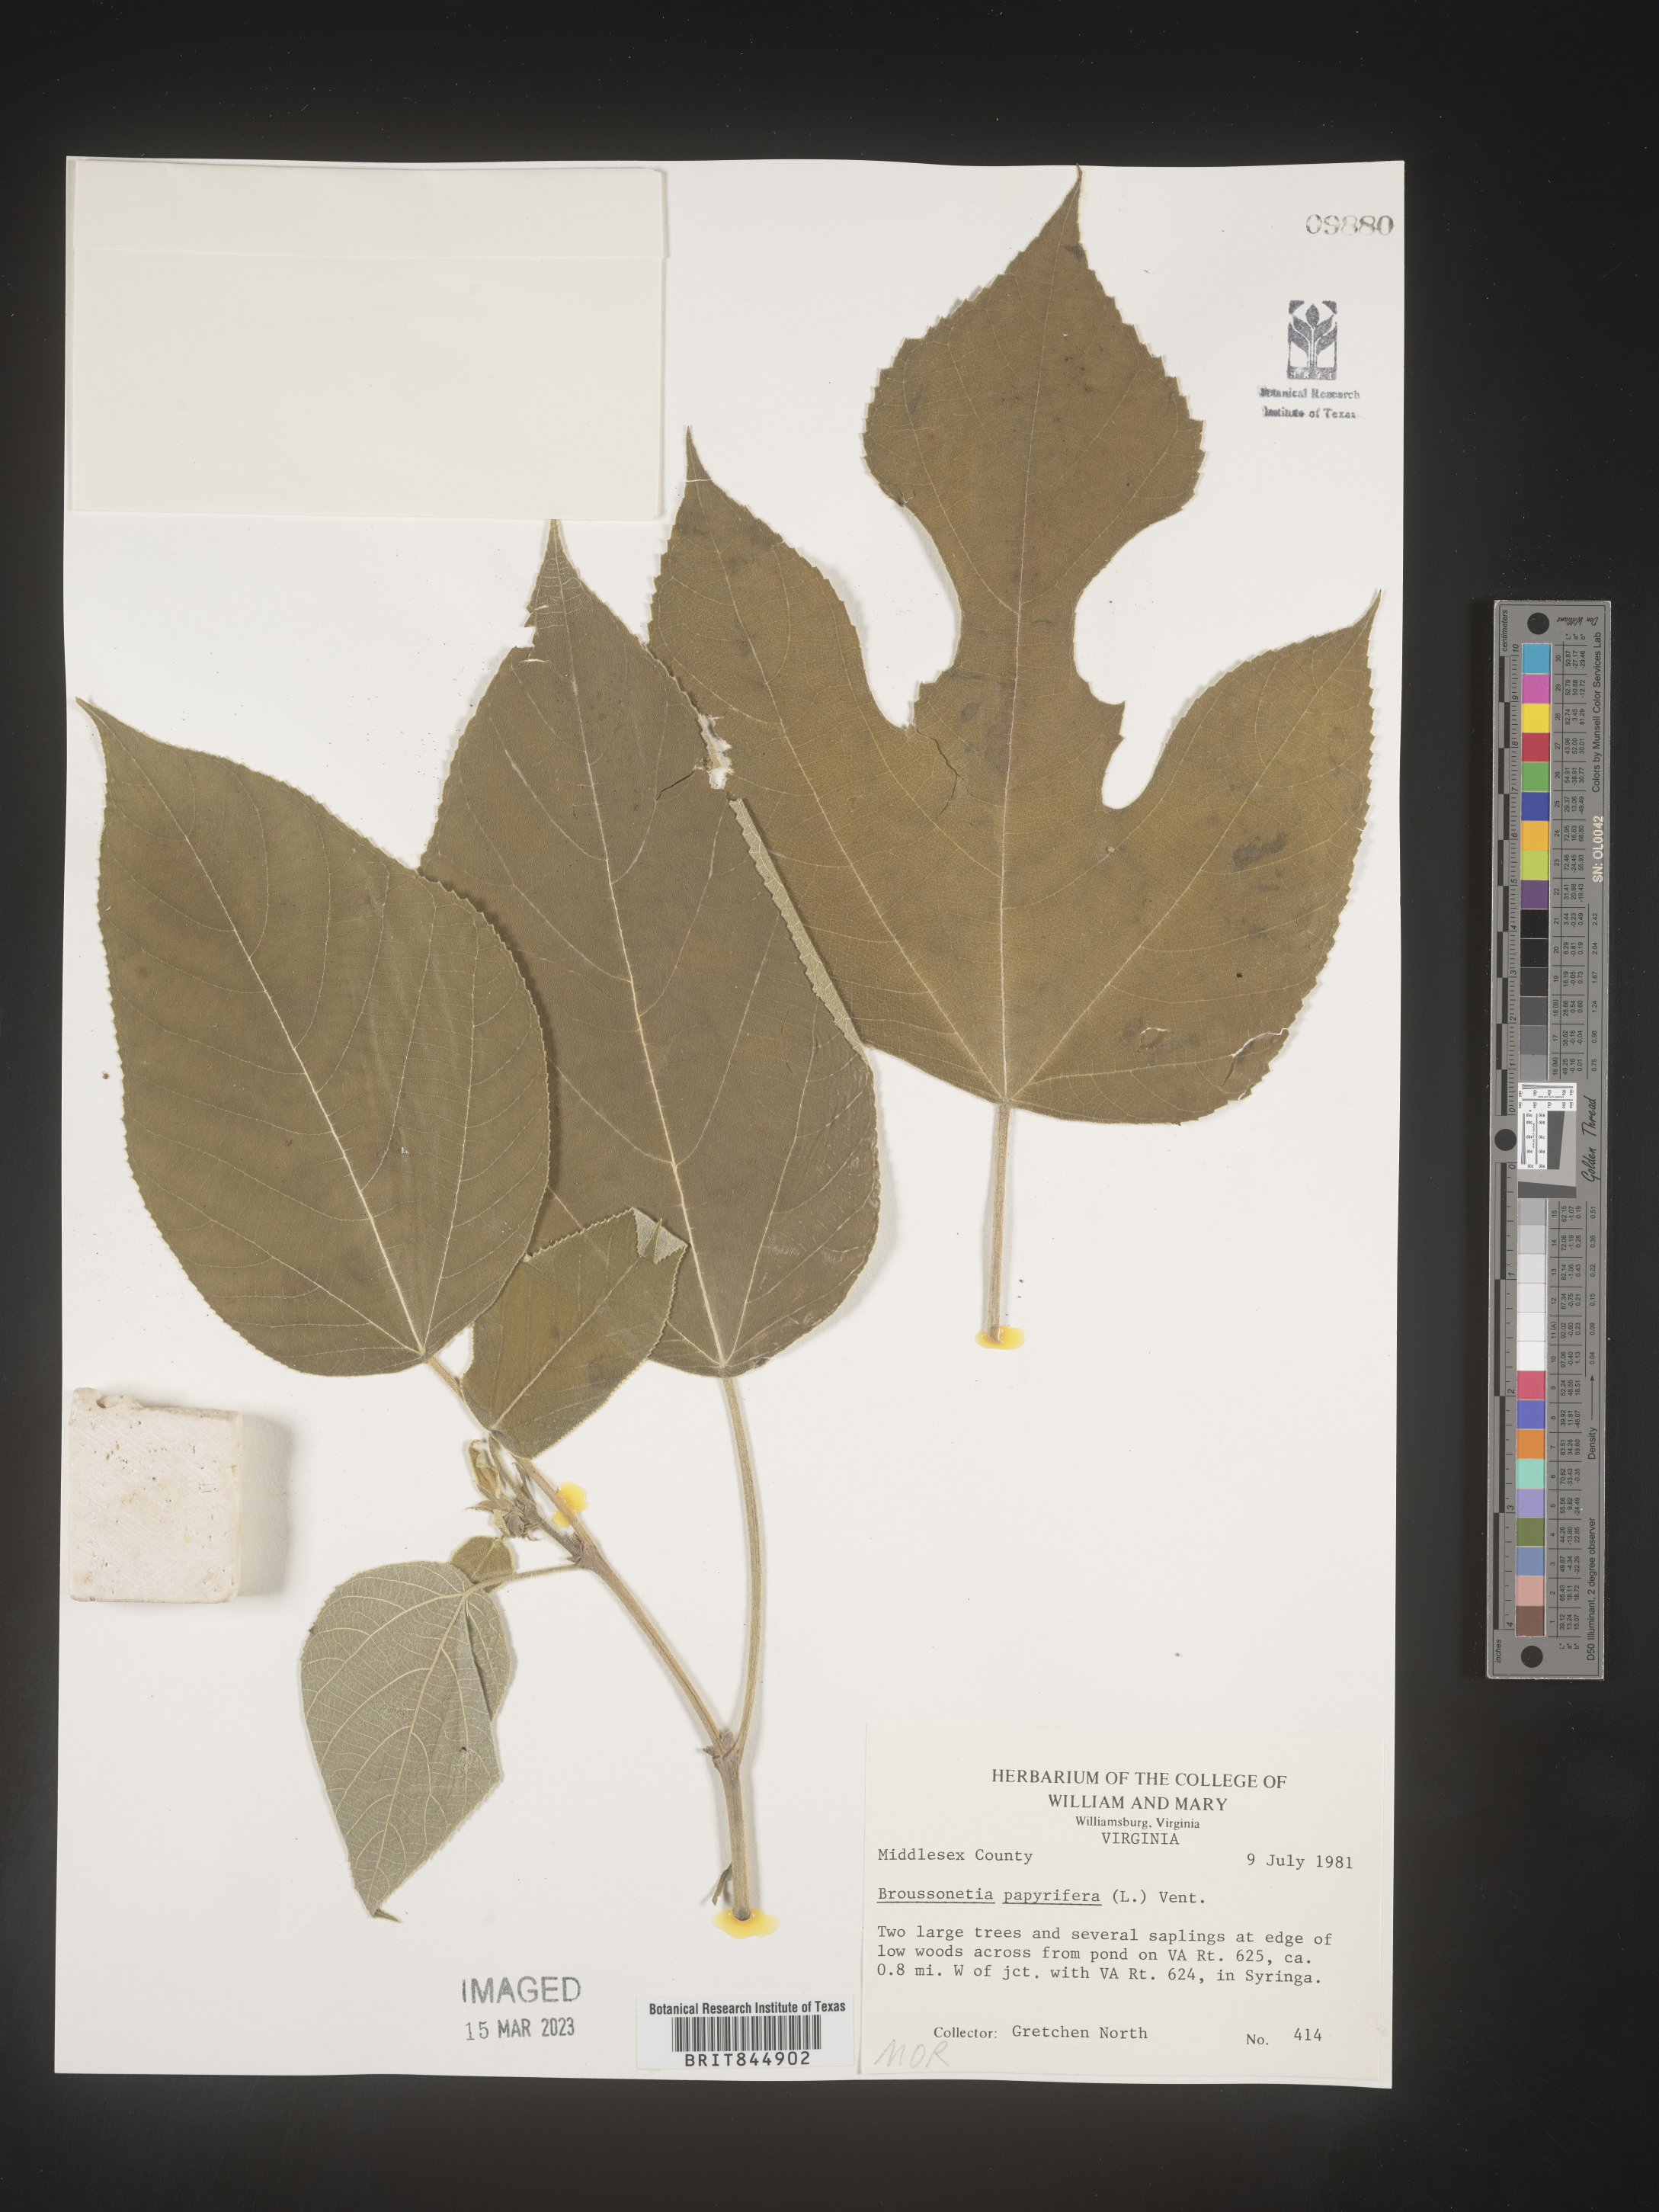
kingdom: Plantae
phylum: Tracheophyta
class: Magnoliopsida
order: Rosales
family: Moraceae
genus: Broussonetia
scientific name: Broussonetia
